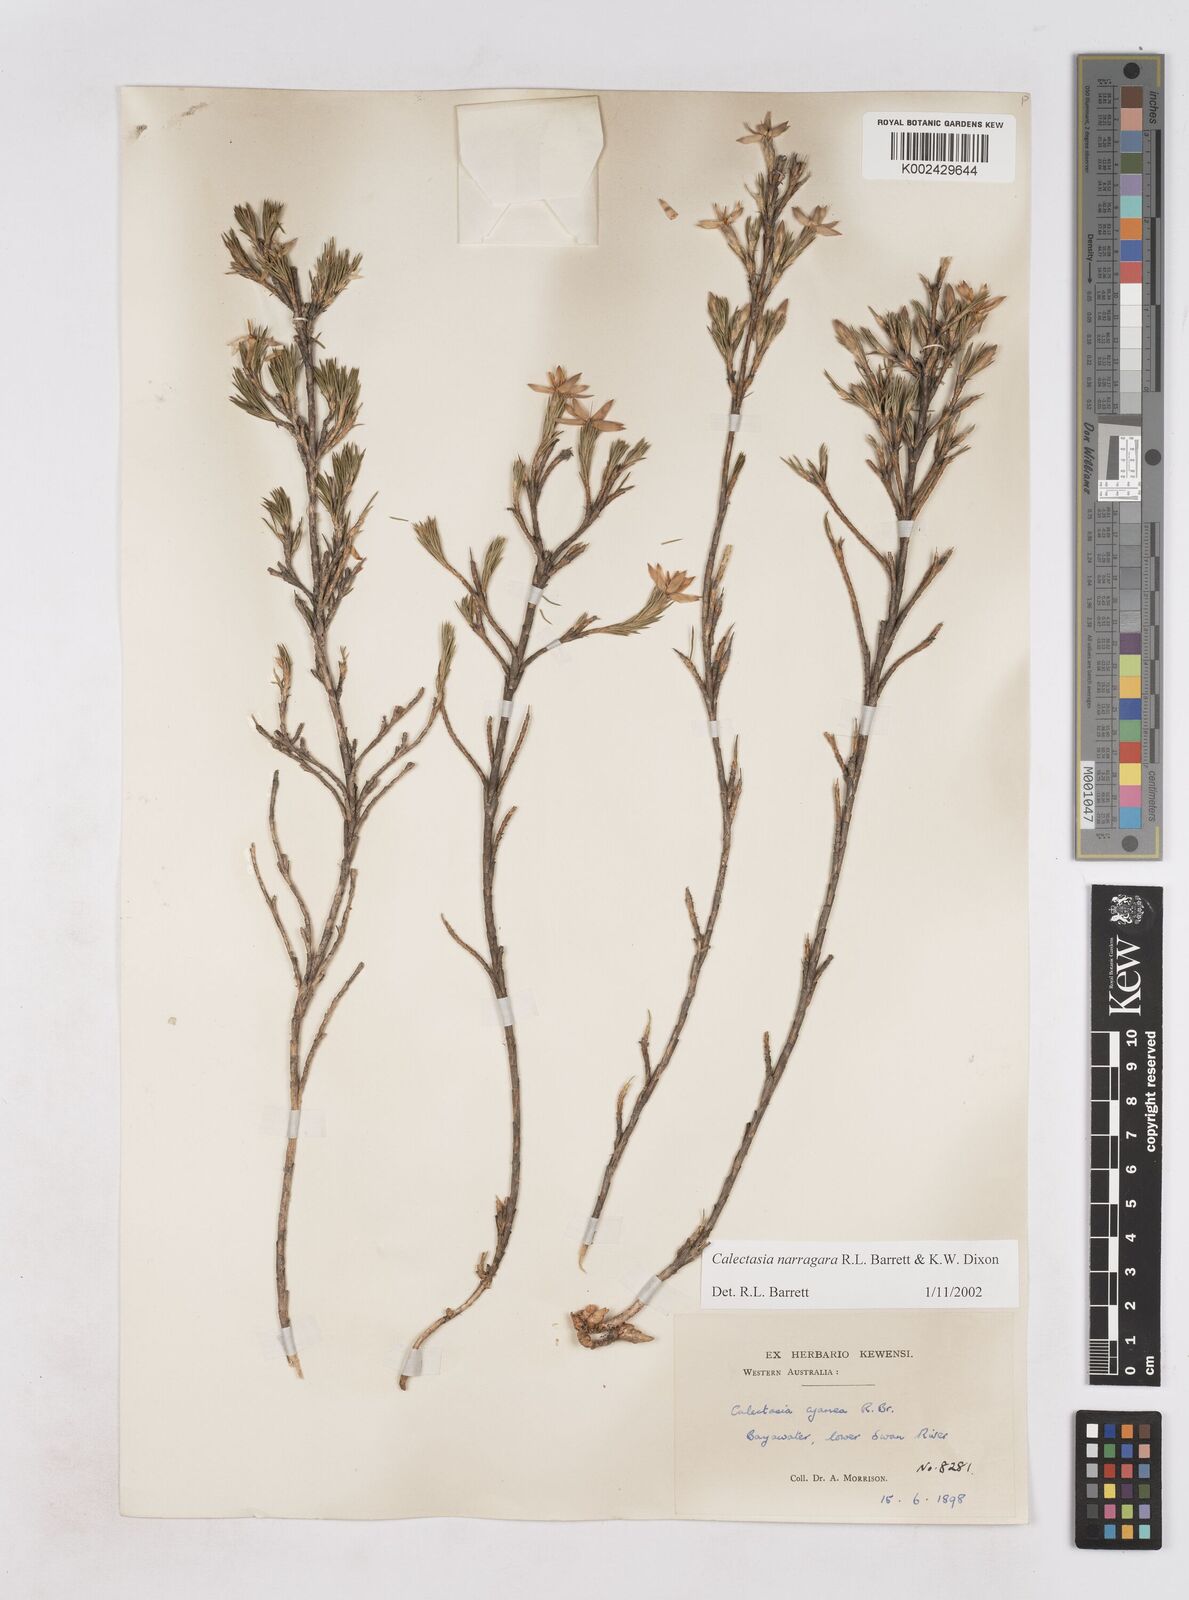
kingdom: Plantae
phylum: Tracheophyta
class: Liliopsida
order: Arecales
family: Dasypogonaceae
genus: Calectasia
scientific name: Calectasia narragara
